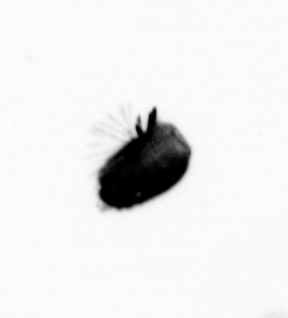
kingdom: Animalia
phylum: Arthropoda
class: Maxillopoda
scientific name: Maxillopoda
